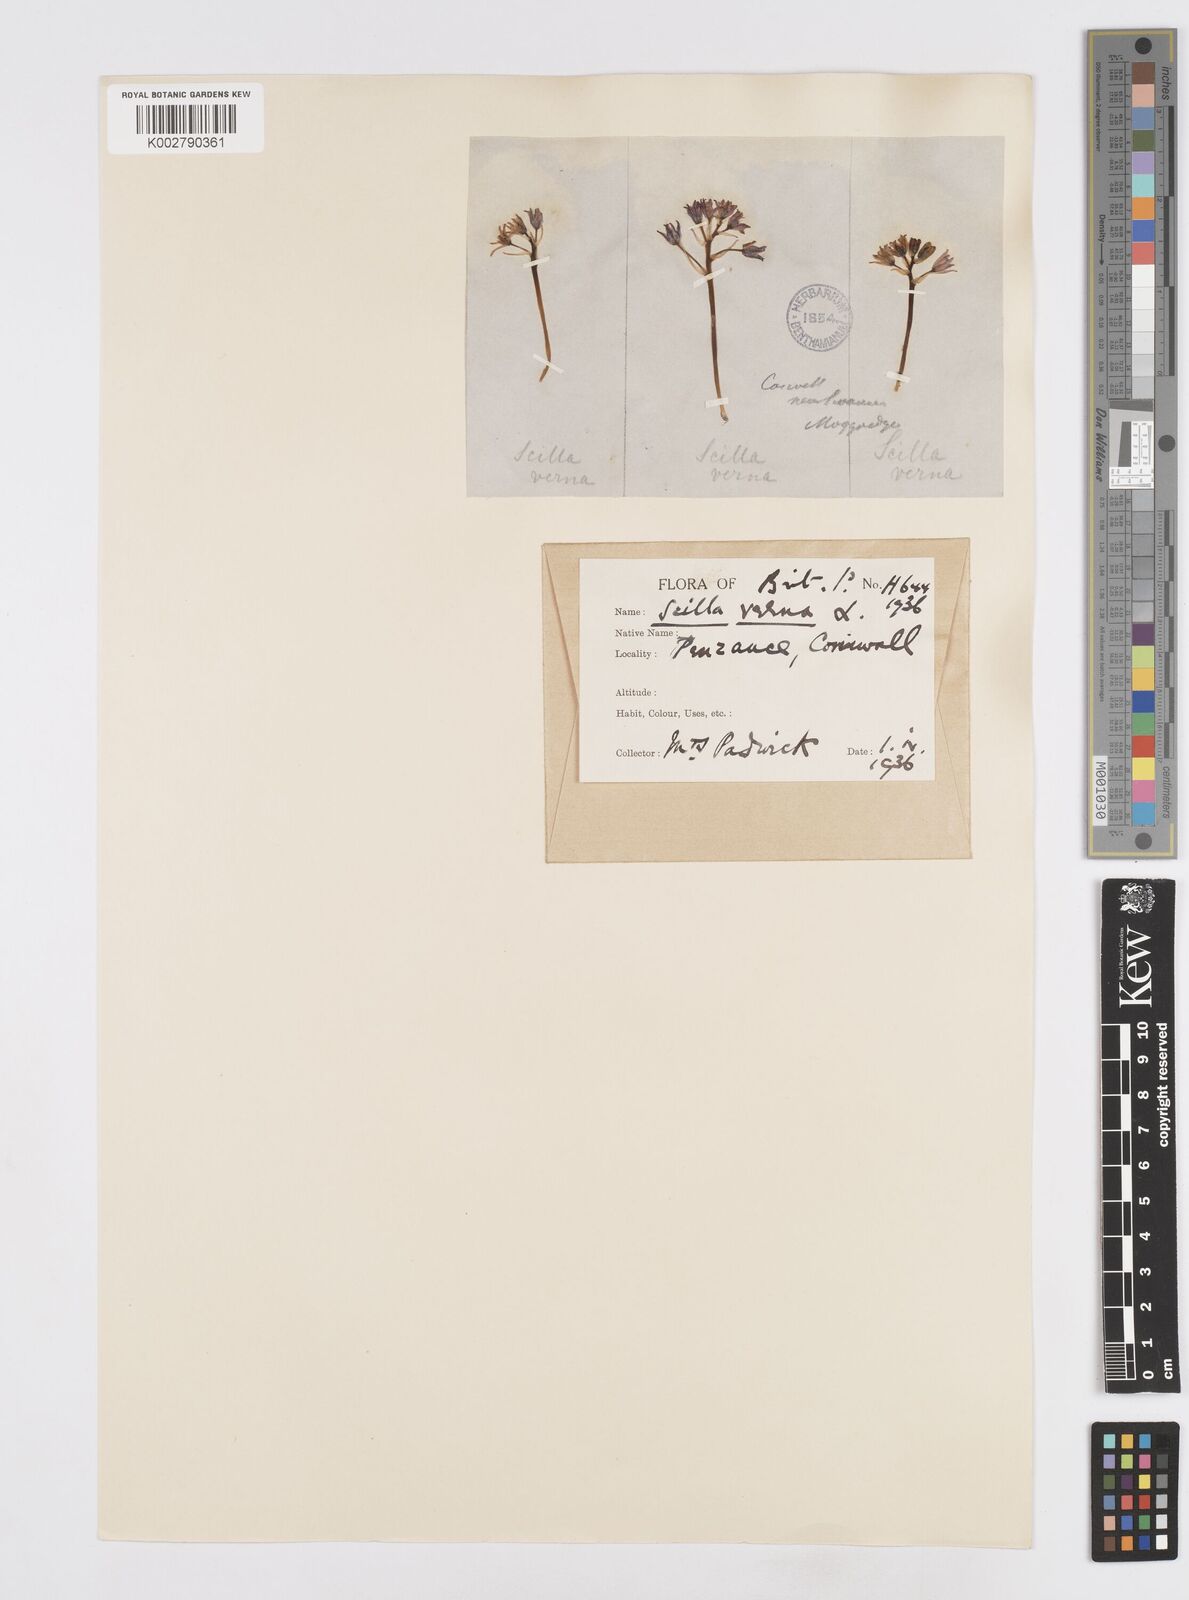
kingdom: Plantae
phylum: Tracheophyta
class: Liliopsida
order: Asparagales
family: Asparagaceae
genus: Scilla
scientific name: Scilla verna
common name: Spring squill
